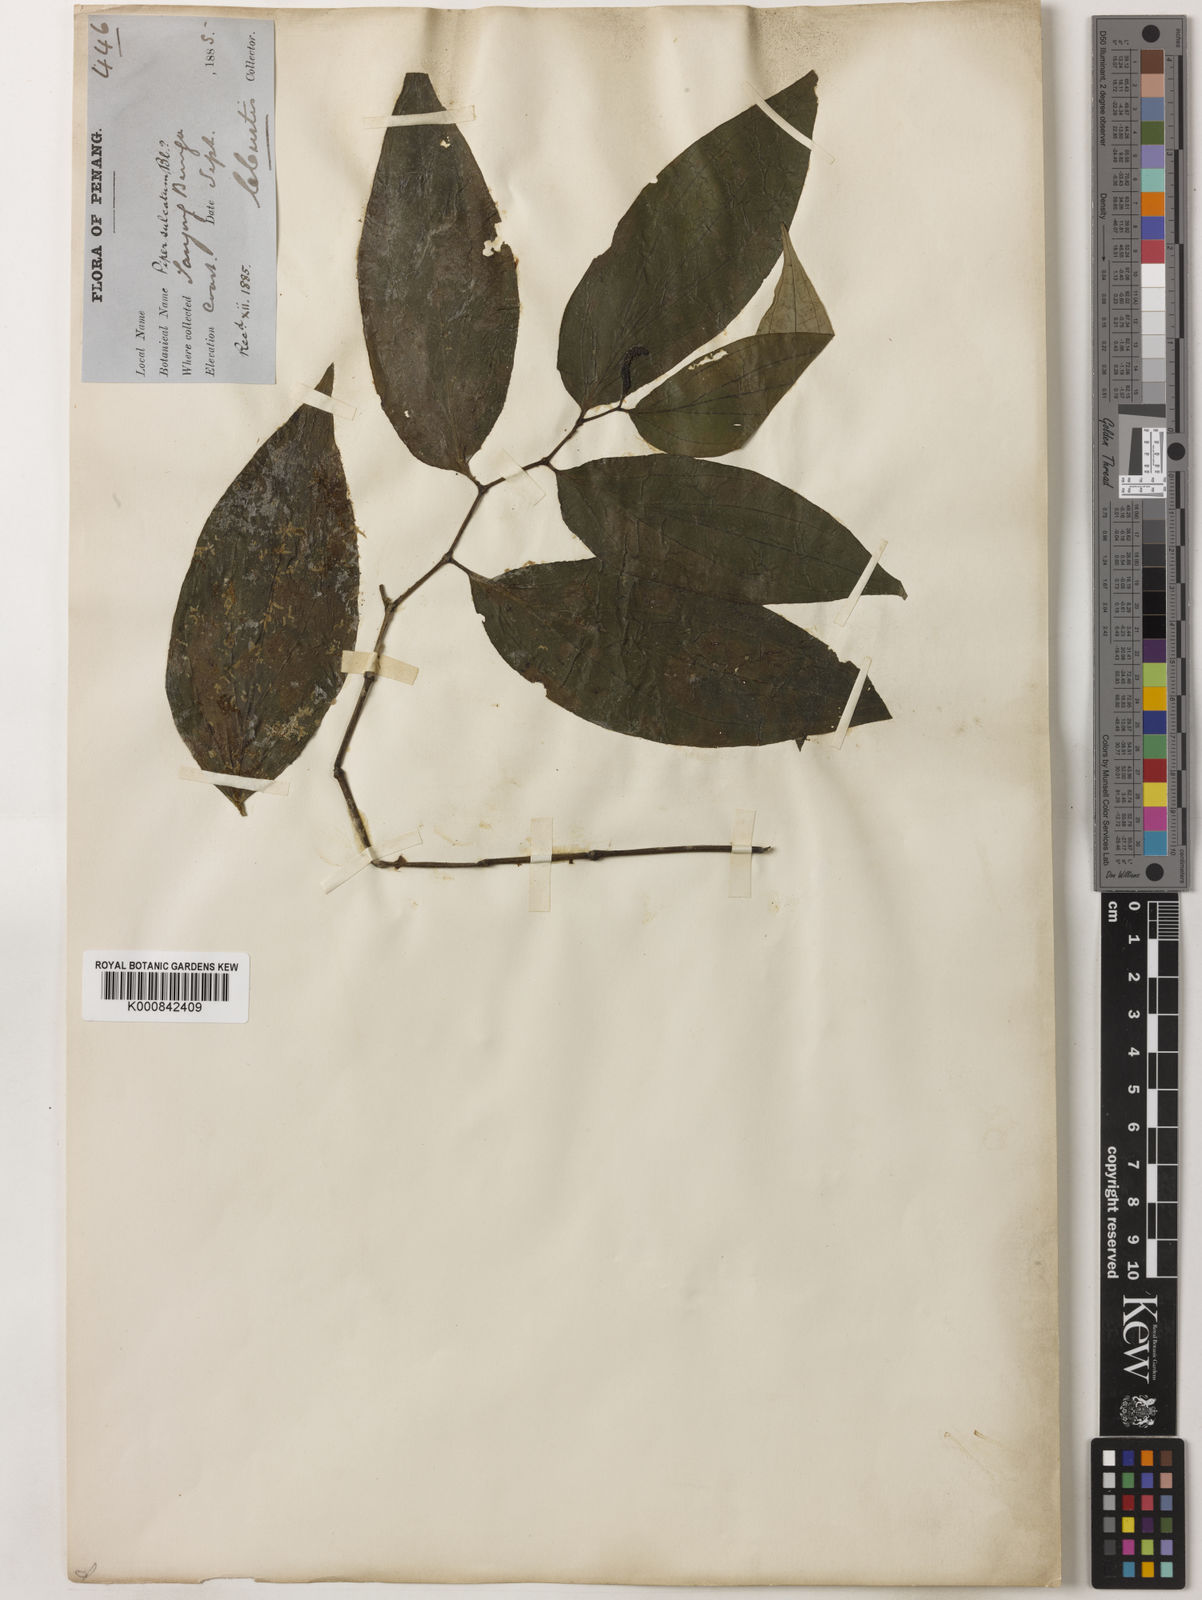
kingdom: Plantae
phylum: Tracheophyta
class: Magnoliopsida
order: Piperales
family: Piperaceae
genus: Piper
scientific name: Piper penangense
